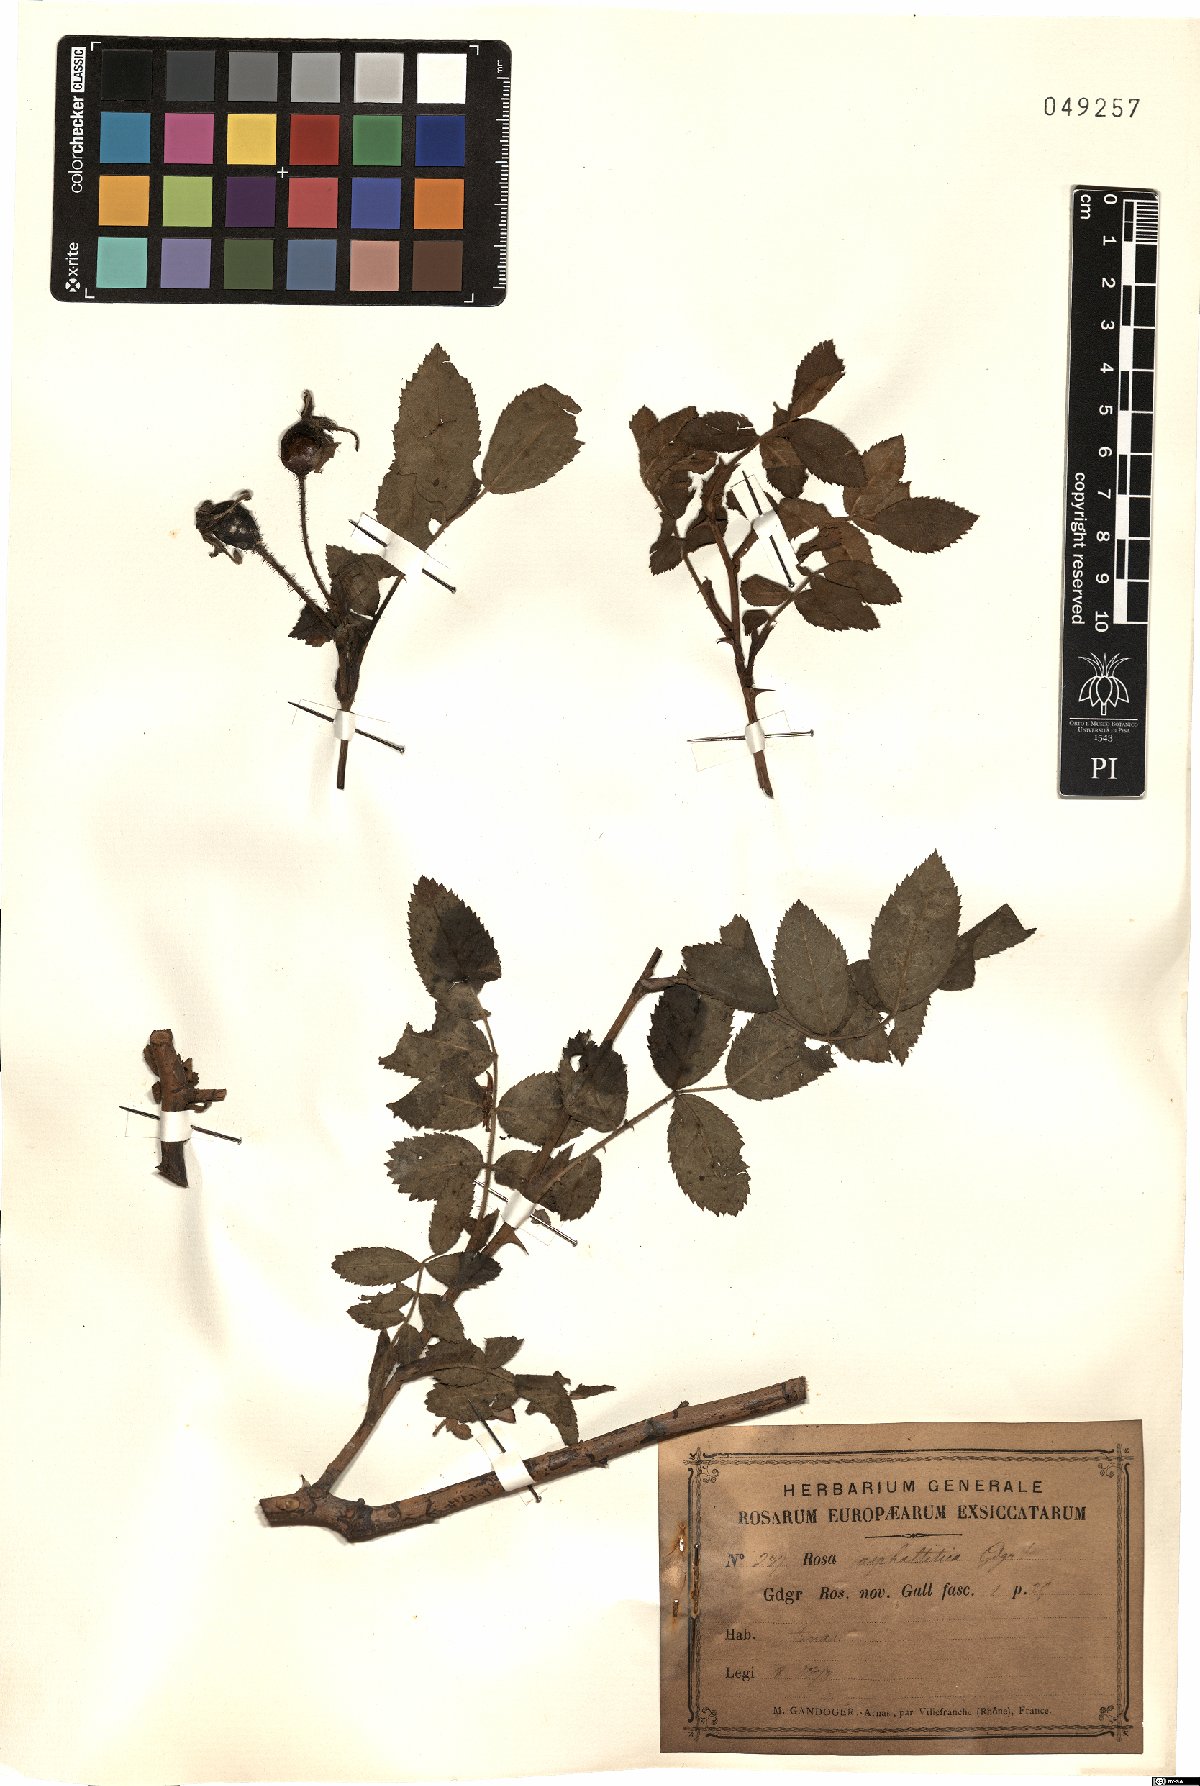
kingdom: Plantae
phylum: Tracheophyta
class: Magnoliopsida
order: Rosales
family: Rosaceae
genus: Rosa
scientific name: Rosa asphaltitica
